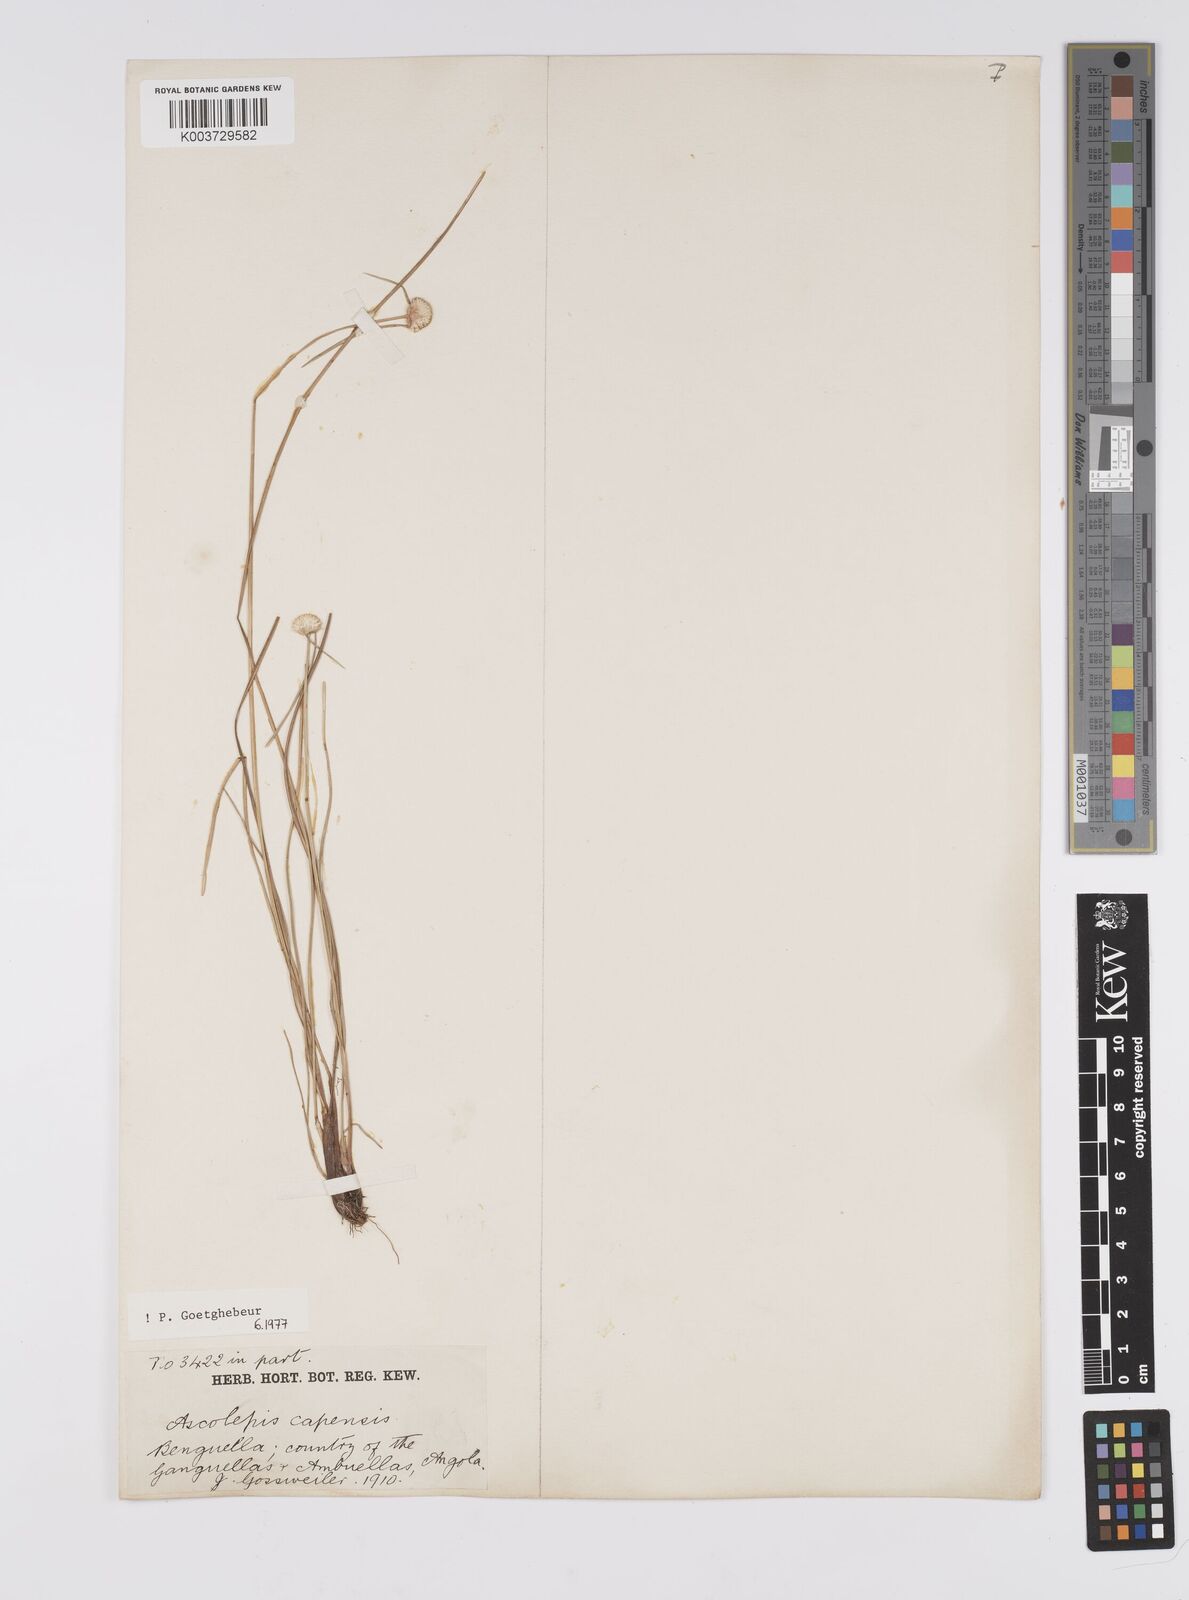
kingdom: Plantae
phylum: Tracheophyta
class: Liliopsida
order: Poales
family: Cyperaceae
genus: Cyperus
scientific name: Cyperus
